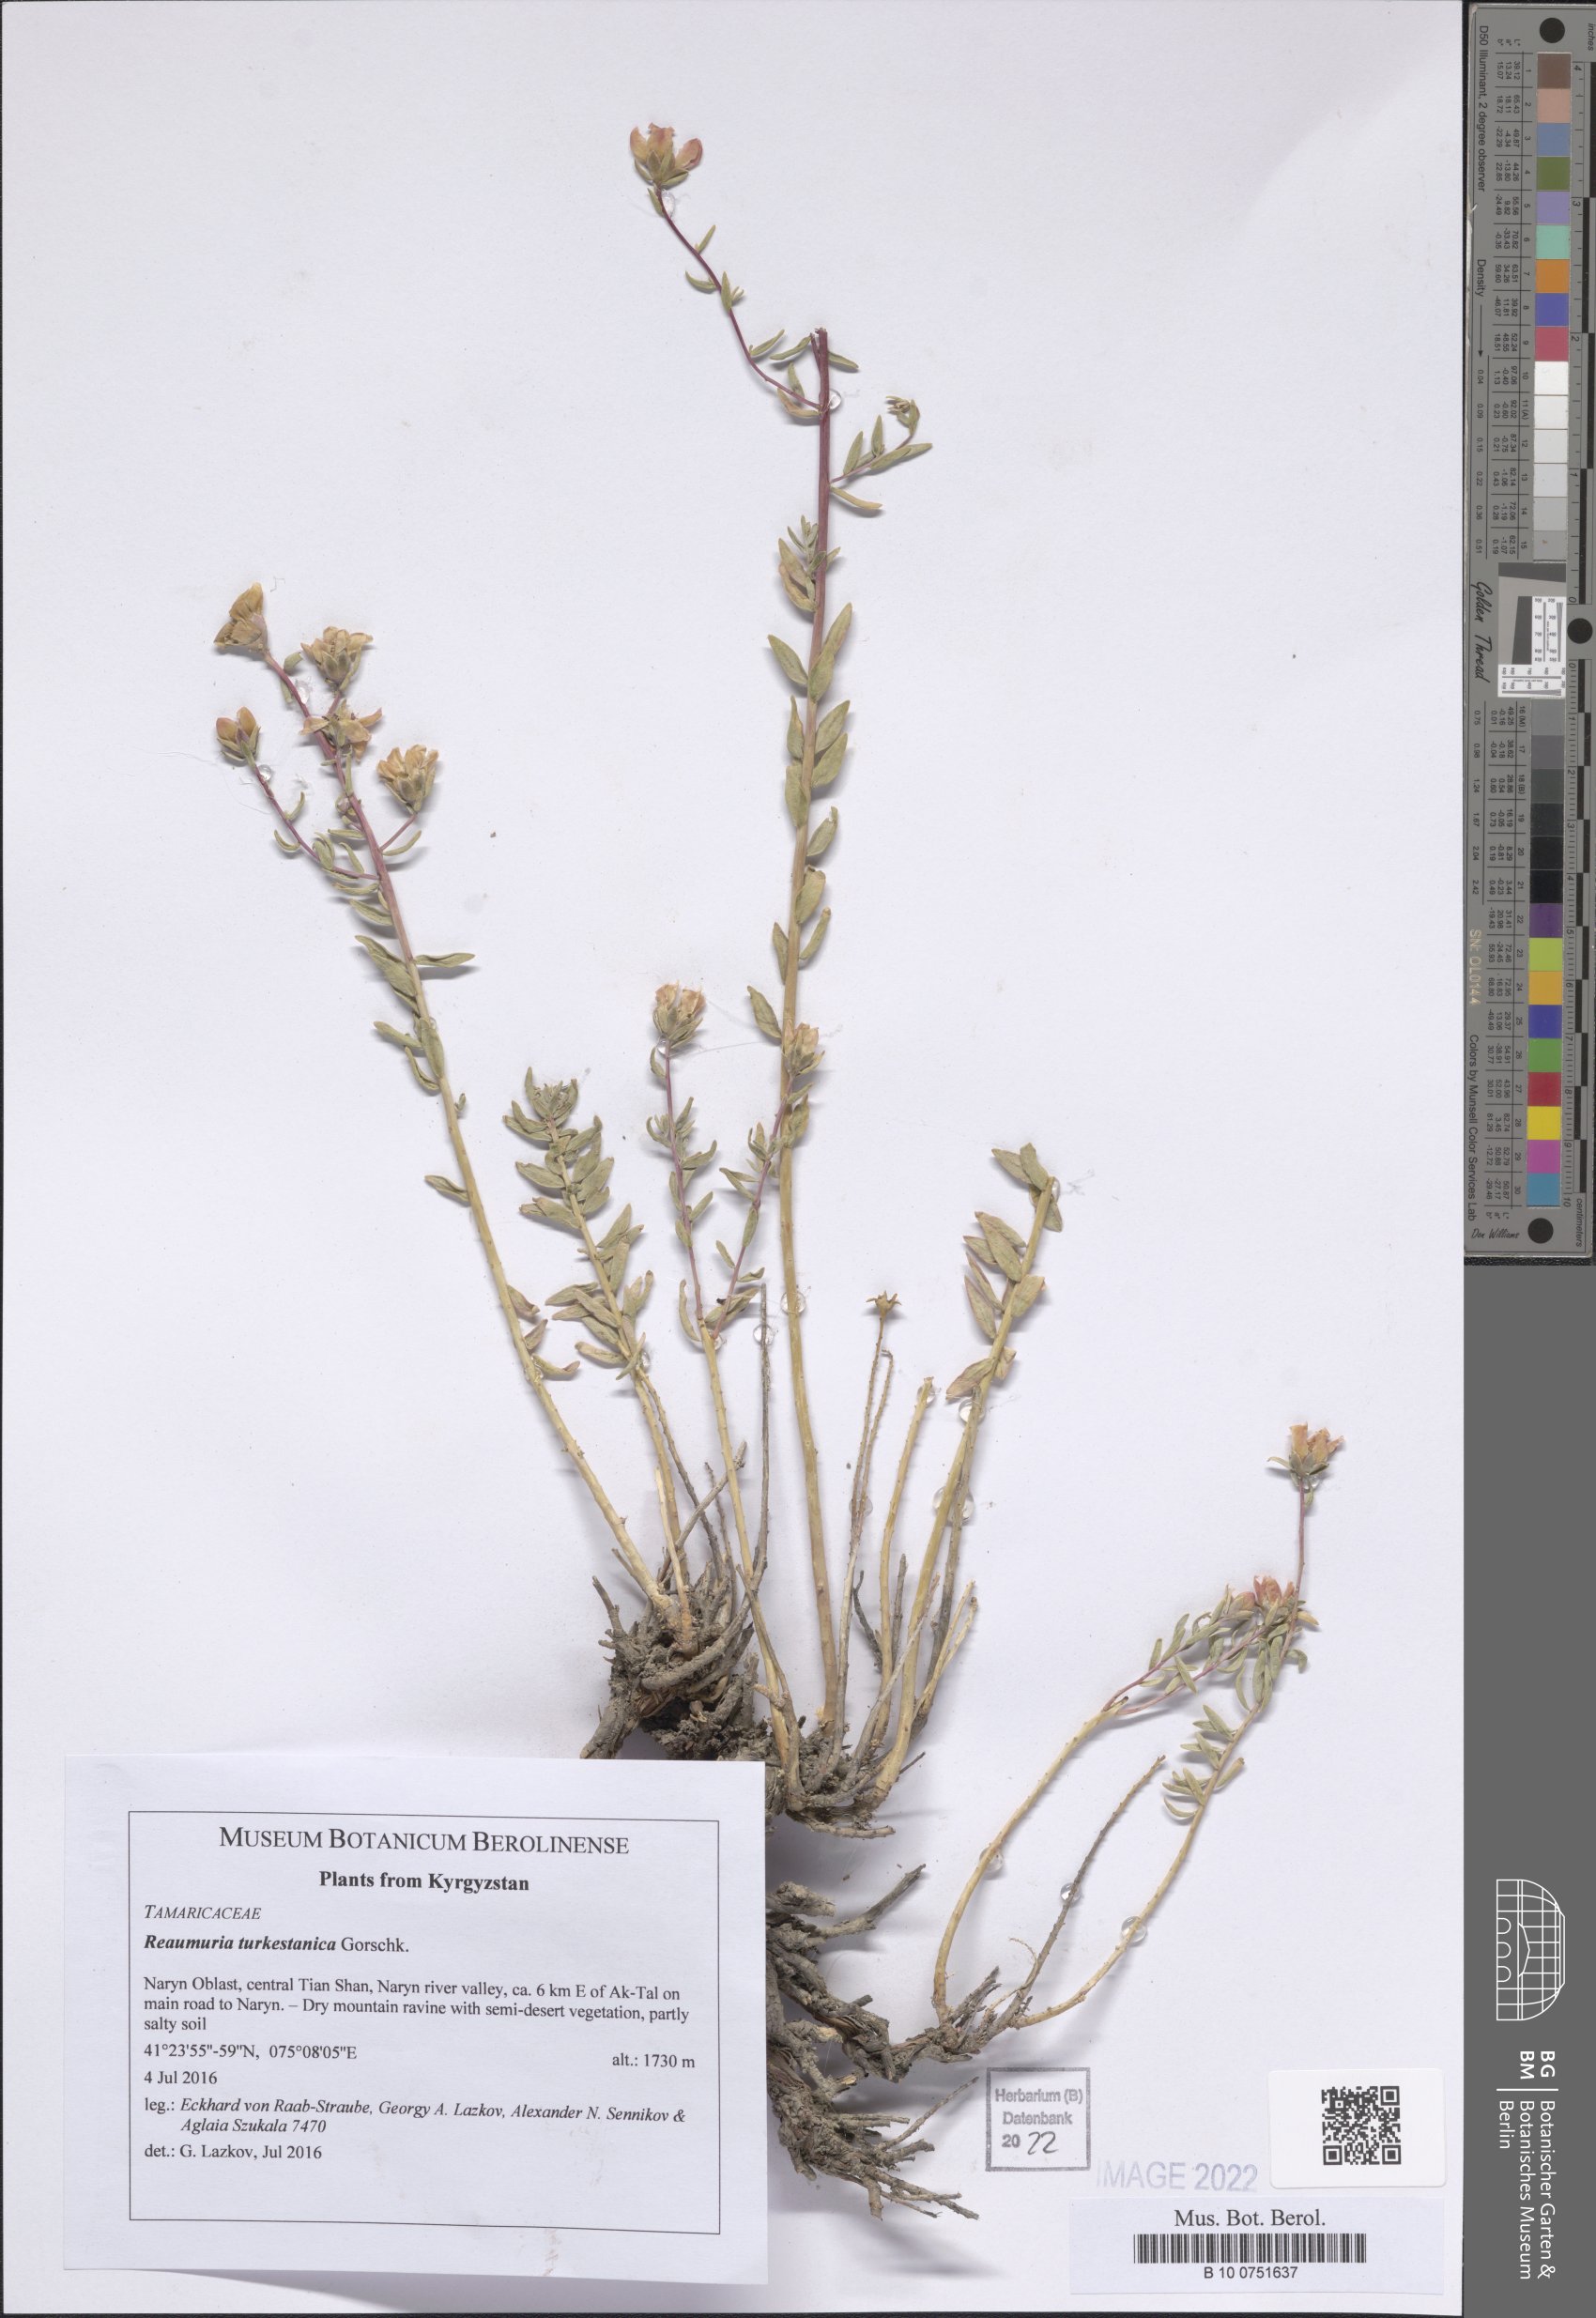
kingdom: Plantae
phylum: Tracheophyta
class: Magnoliopsida
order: Caryophyllales
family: Tamaricaceae
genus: Reaumuria
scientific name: Reaumuria turkestanica
